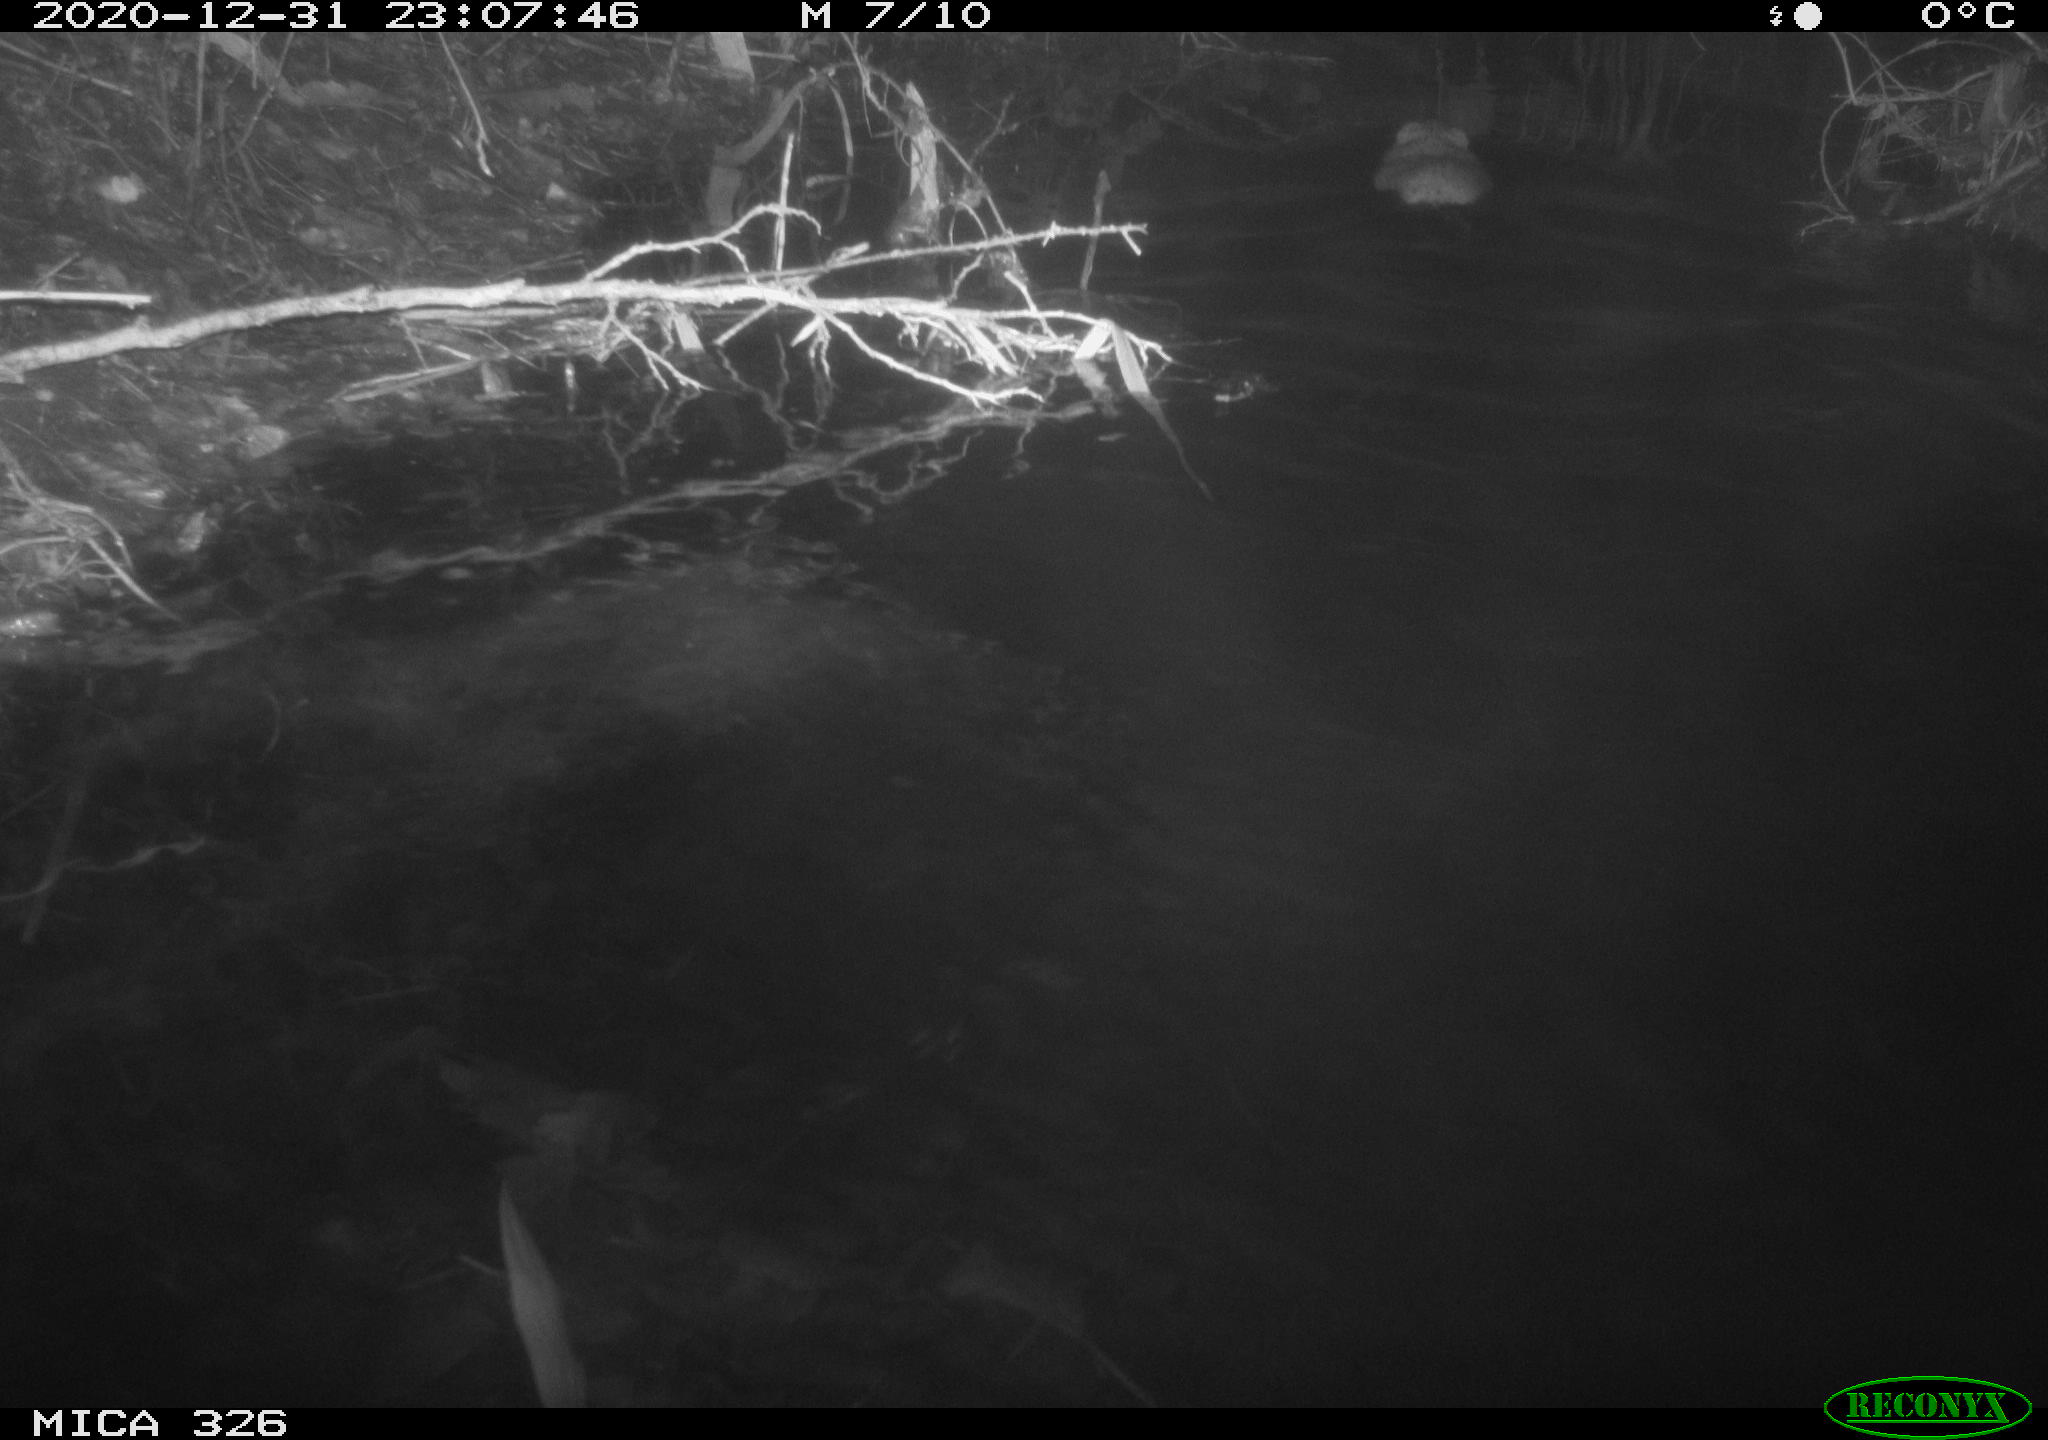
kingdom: Animalia
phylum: Chordata
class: Mammalia
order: Rodentia
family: Cricetidae
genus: Ondatra
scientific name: Ondatra zibethicus
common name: Muskrat
